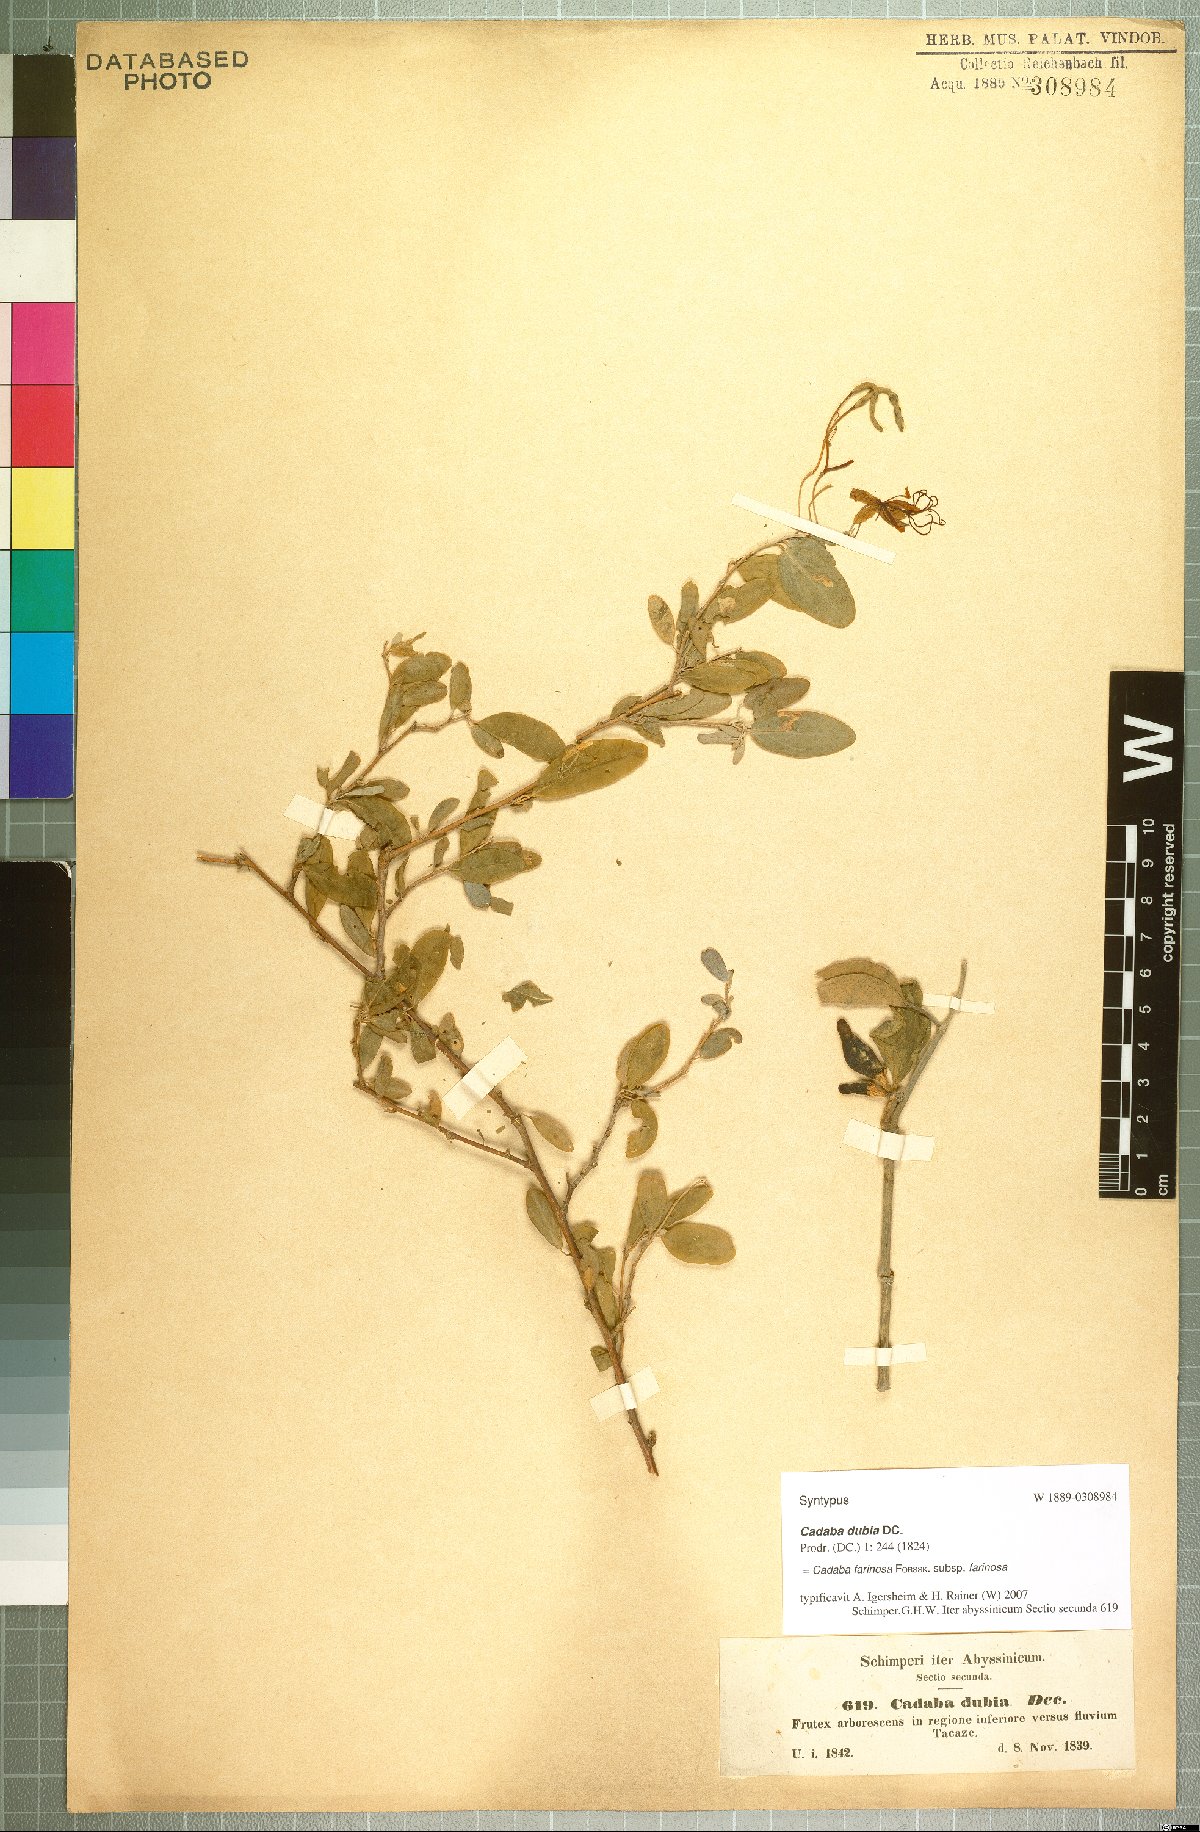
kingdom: Plantae
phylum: Tracheophyta
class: Magnoliopsida
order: Brassicales
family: Capparaceae
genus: Cadaba
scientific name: Cadaba farinosa
